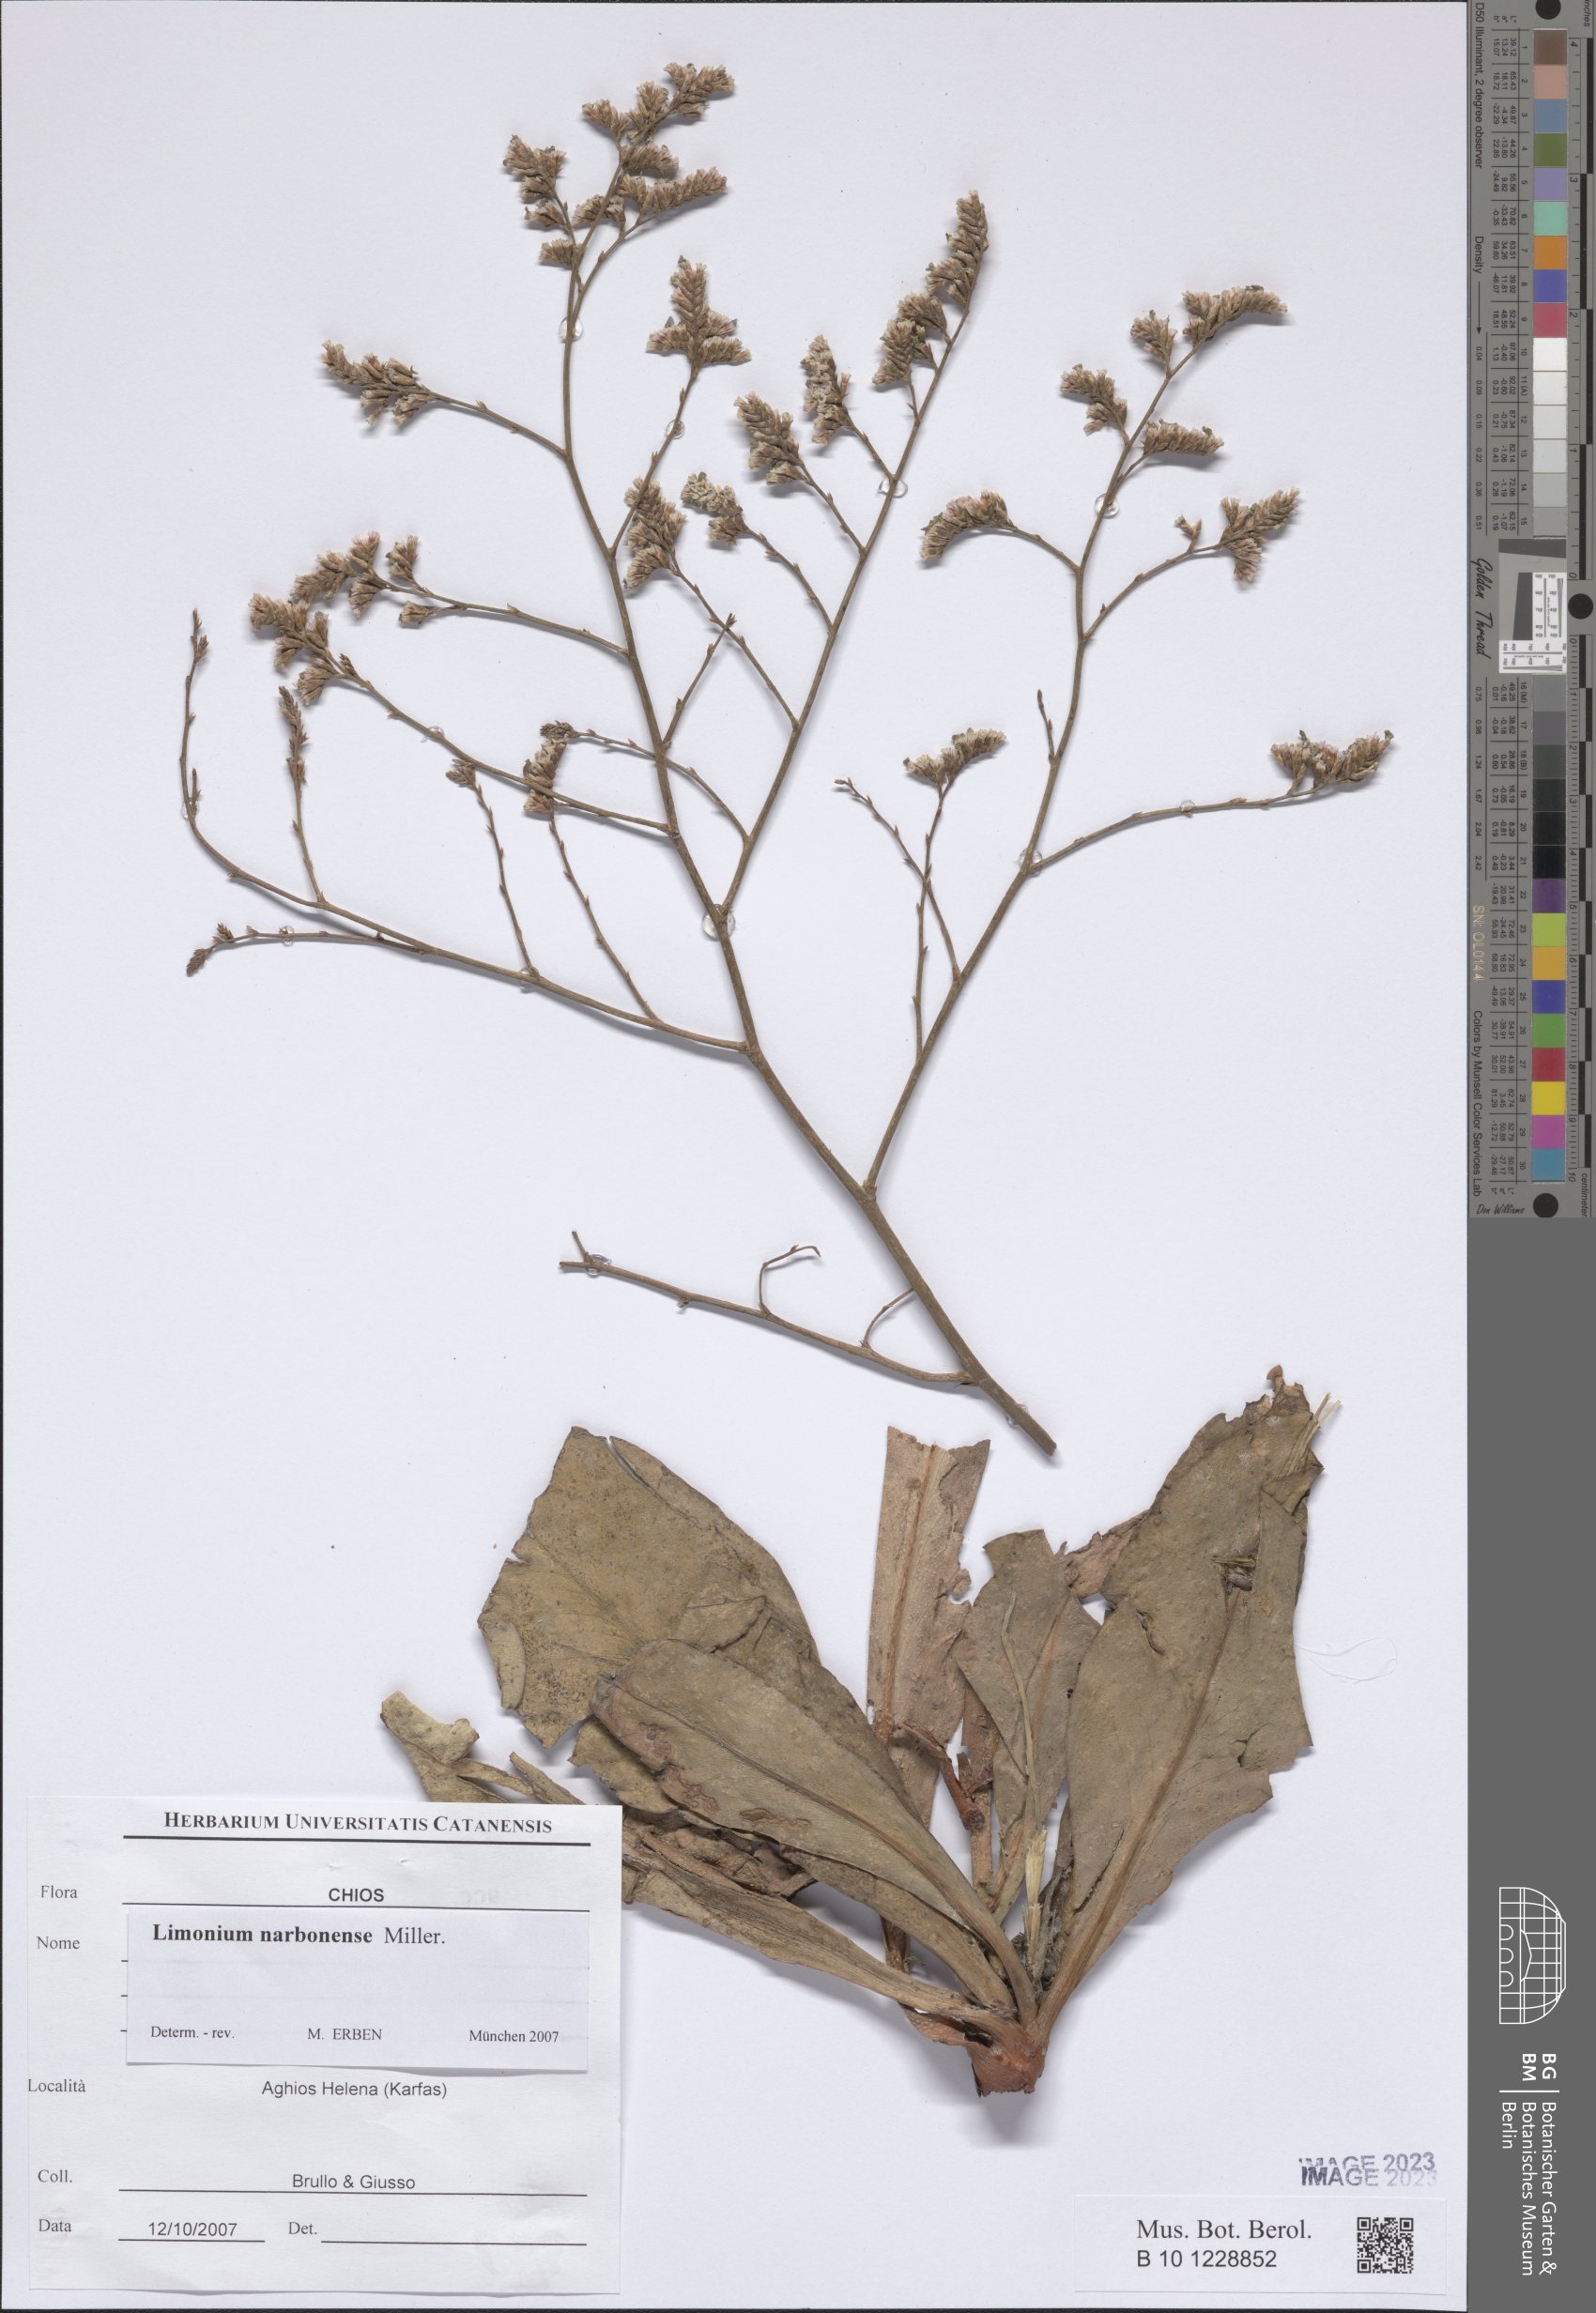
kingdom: Plantae
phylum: Tracheophyta
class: Magnoliopsida
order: Caryophyllales
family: Plumbaginaceae
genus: Limonium
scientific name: Limonium narbonense
